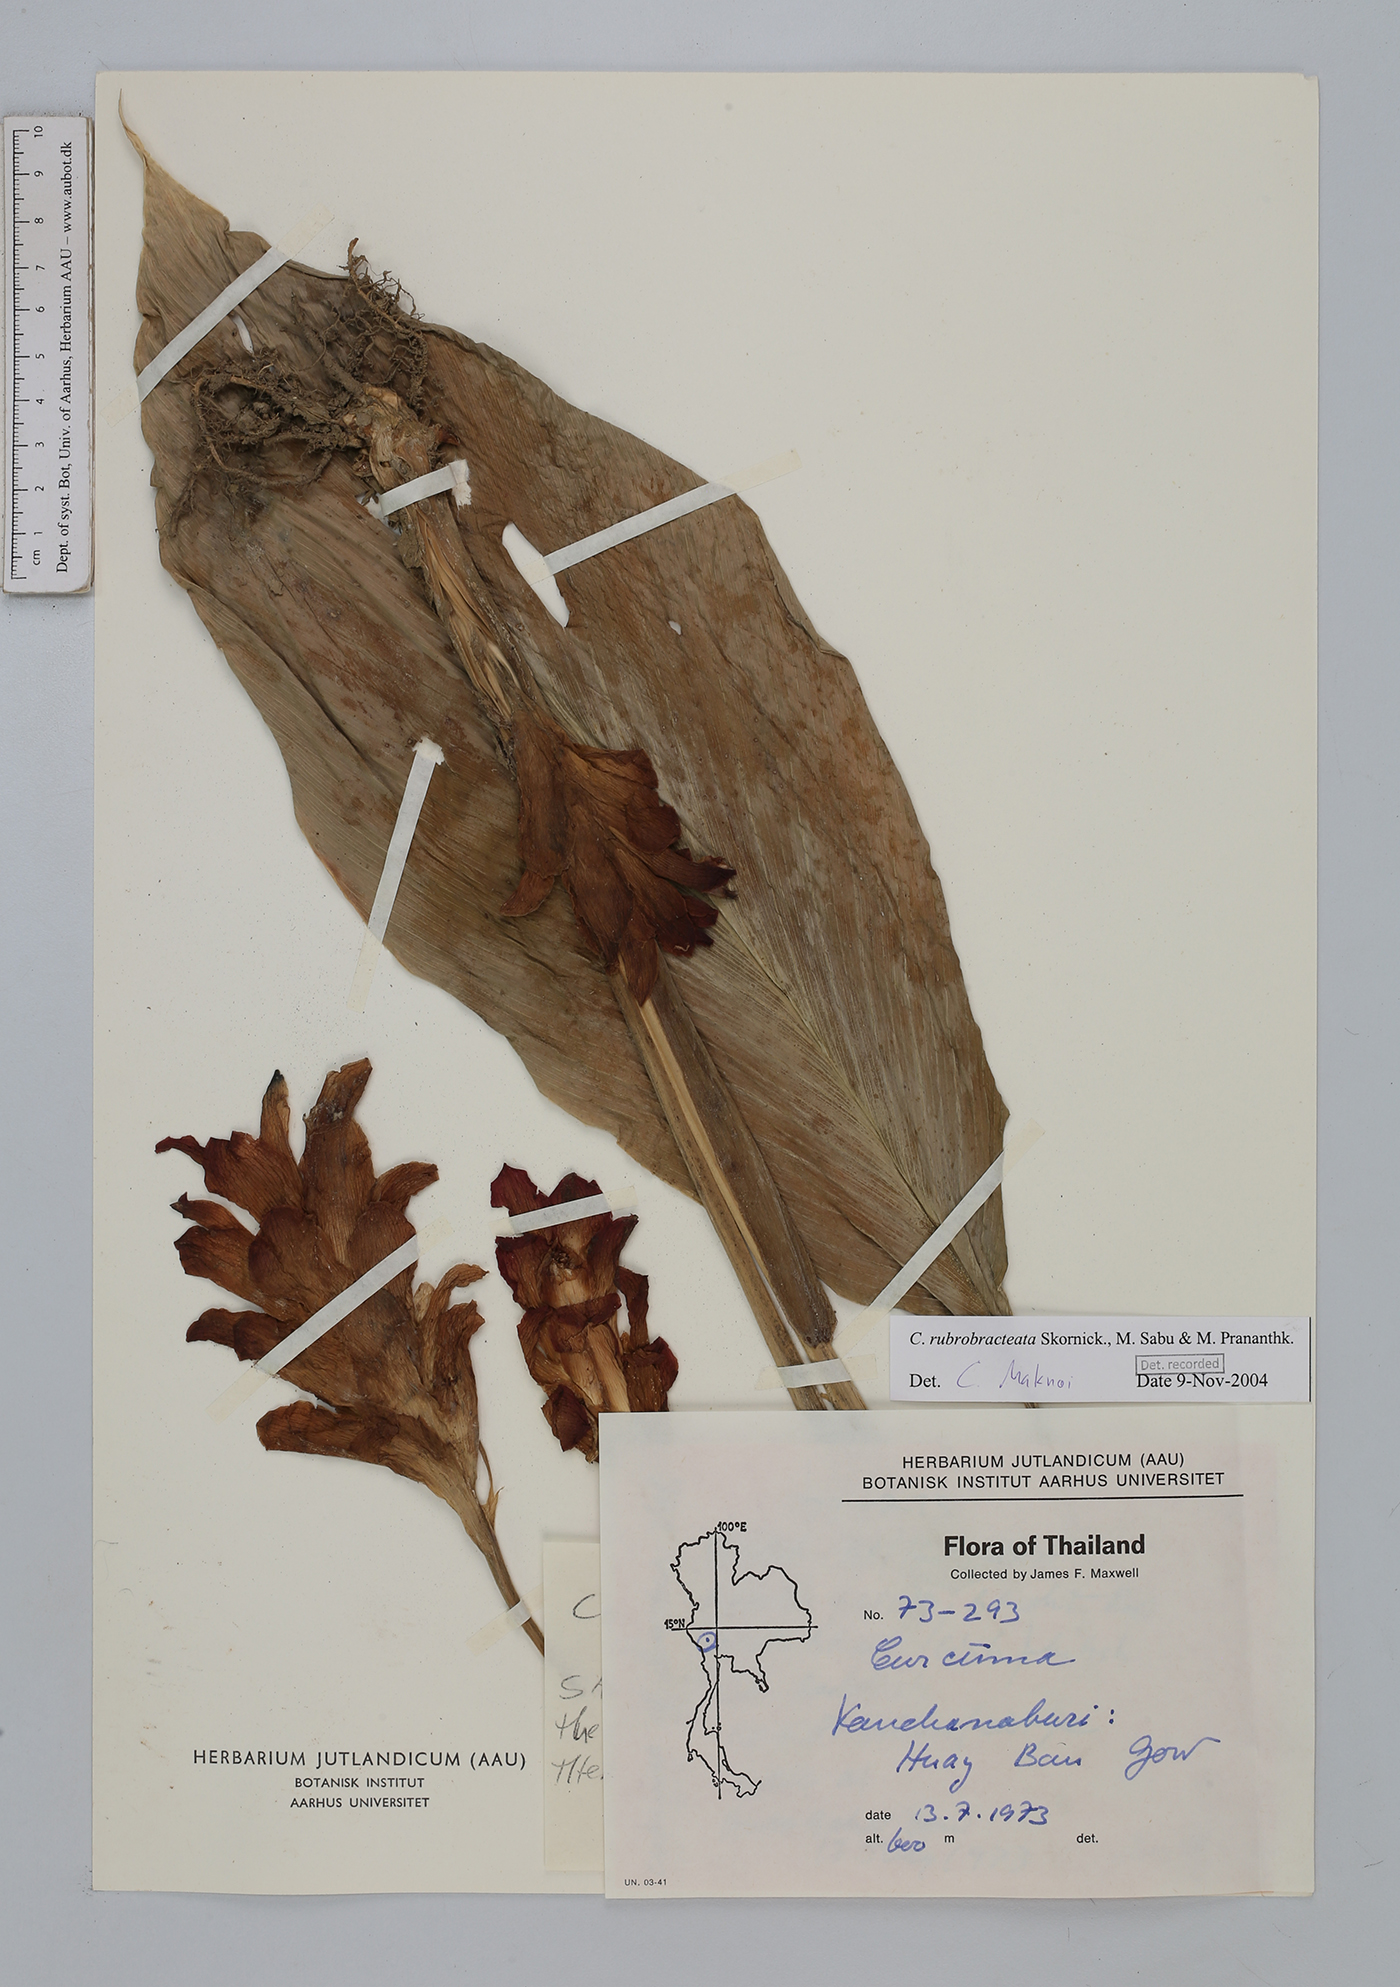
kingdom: Plantae
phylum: Tracheophyta
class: Liliopsida
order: Zingiberales
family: Zingiberaceae
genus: Curcuma
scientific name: Curcuma rubrobracteata
